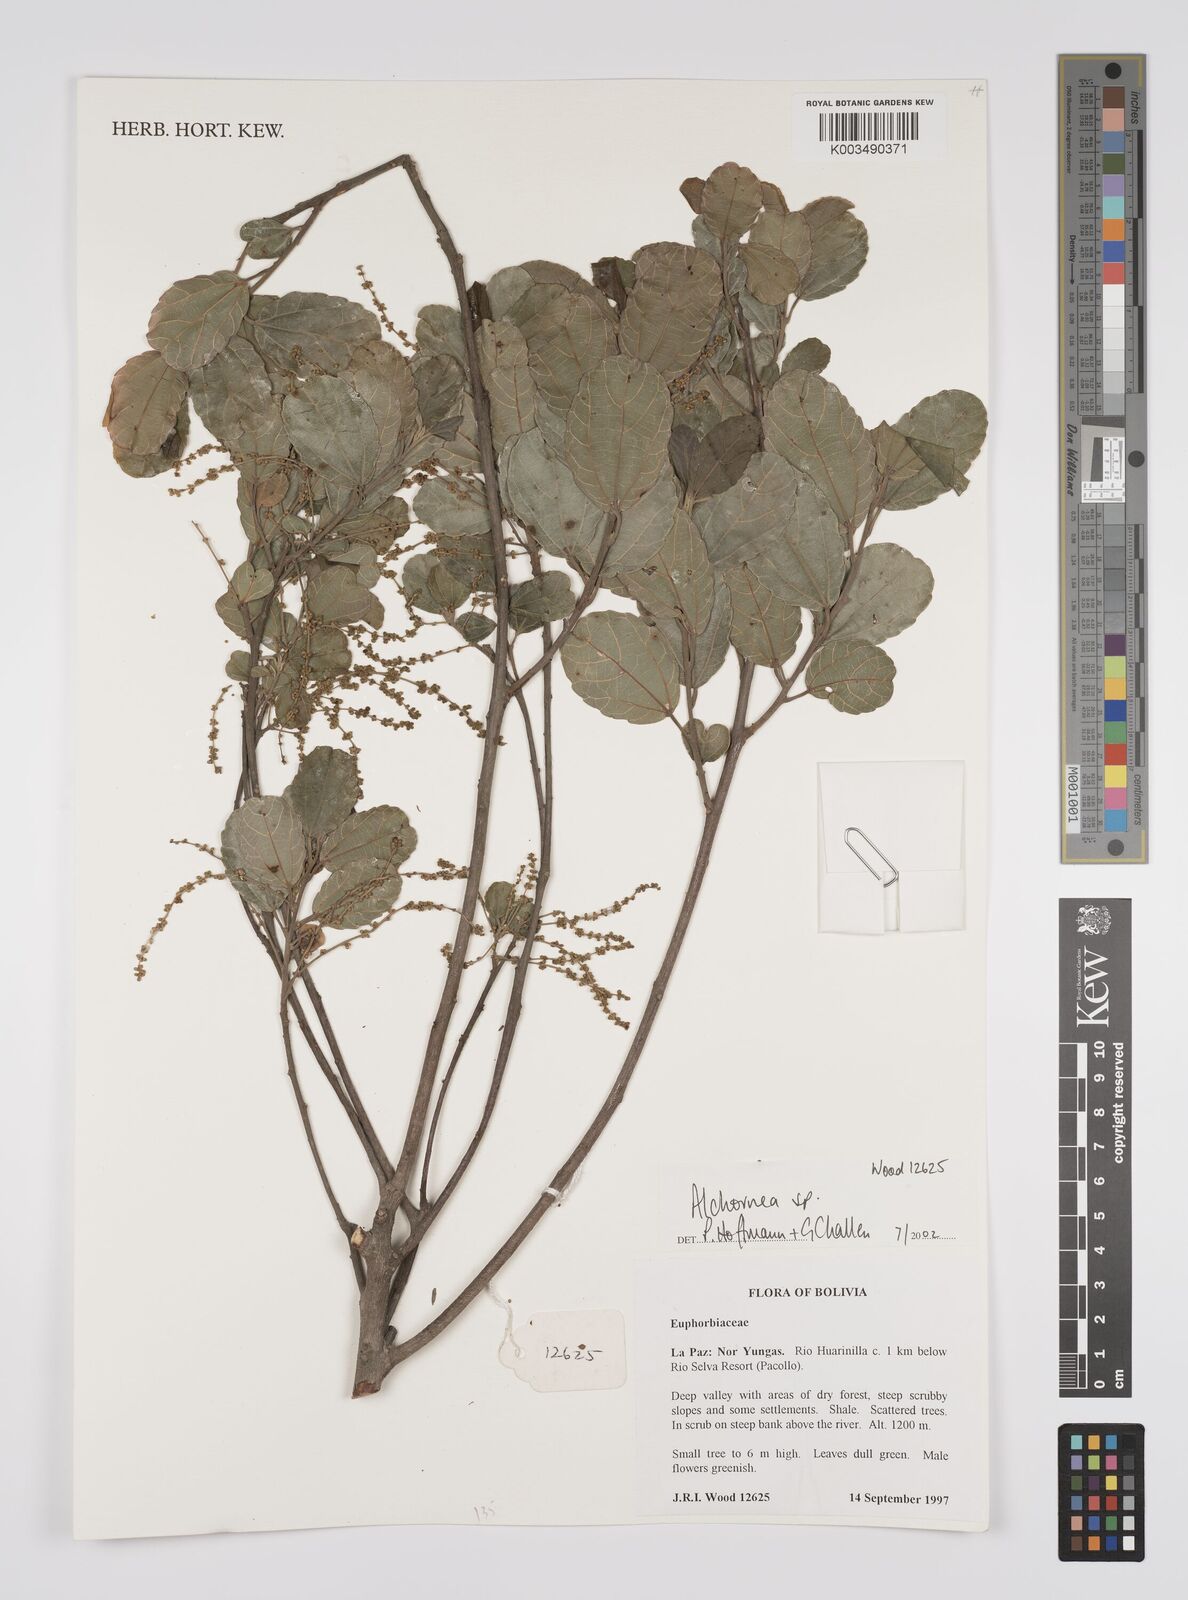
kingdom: Plantae
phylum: Tracheophyta
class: Magnoliopsida
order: Malpighiales
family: Euphorbiaceae
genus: Alchornea
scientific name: Alchornea
